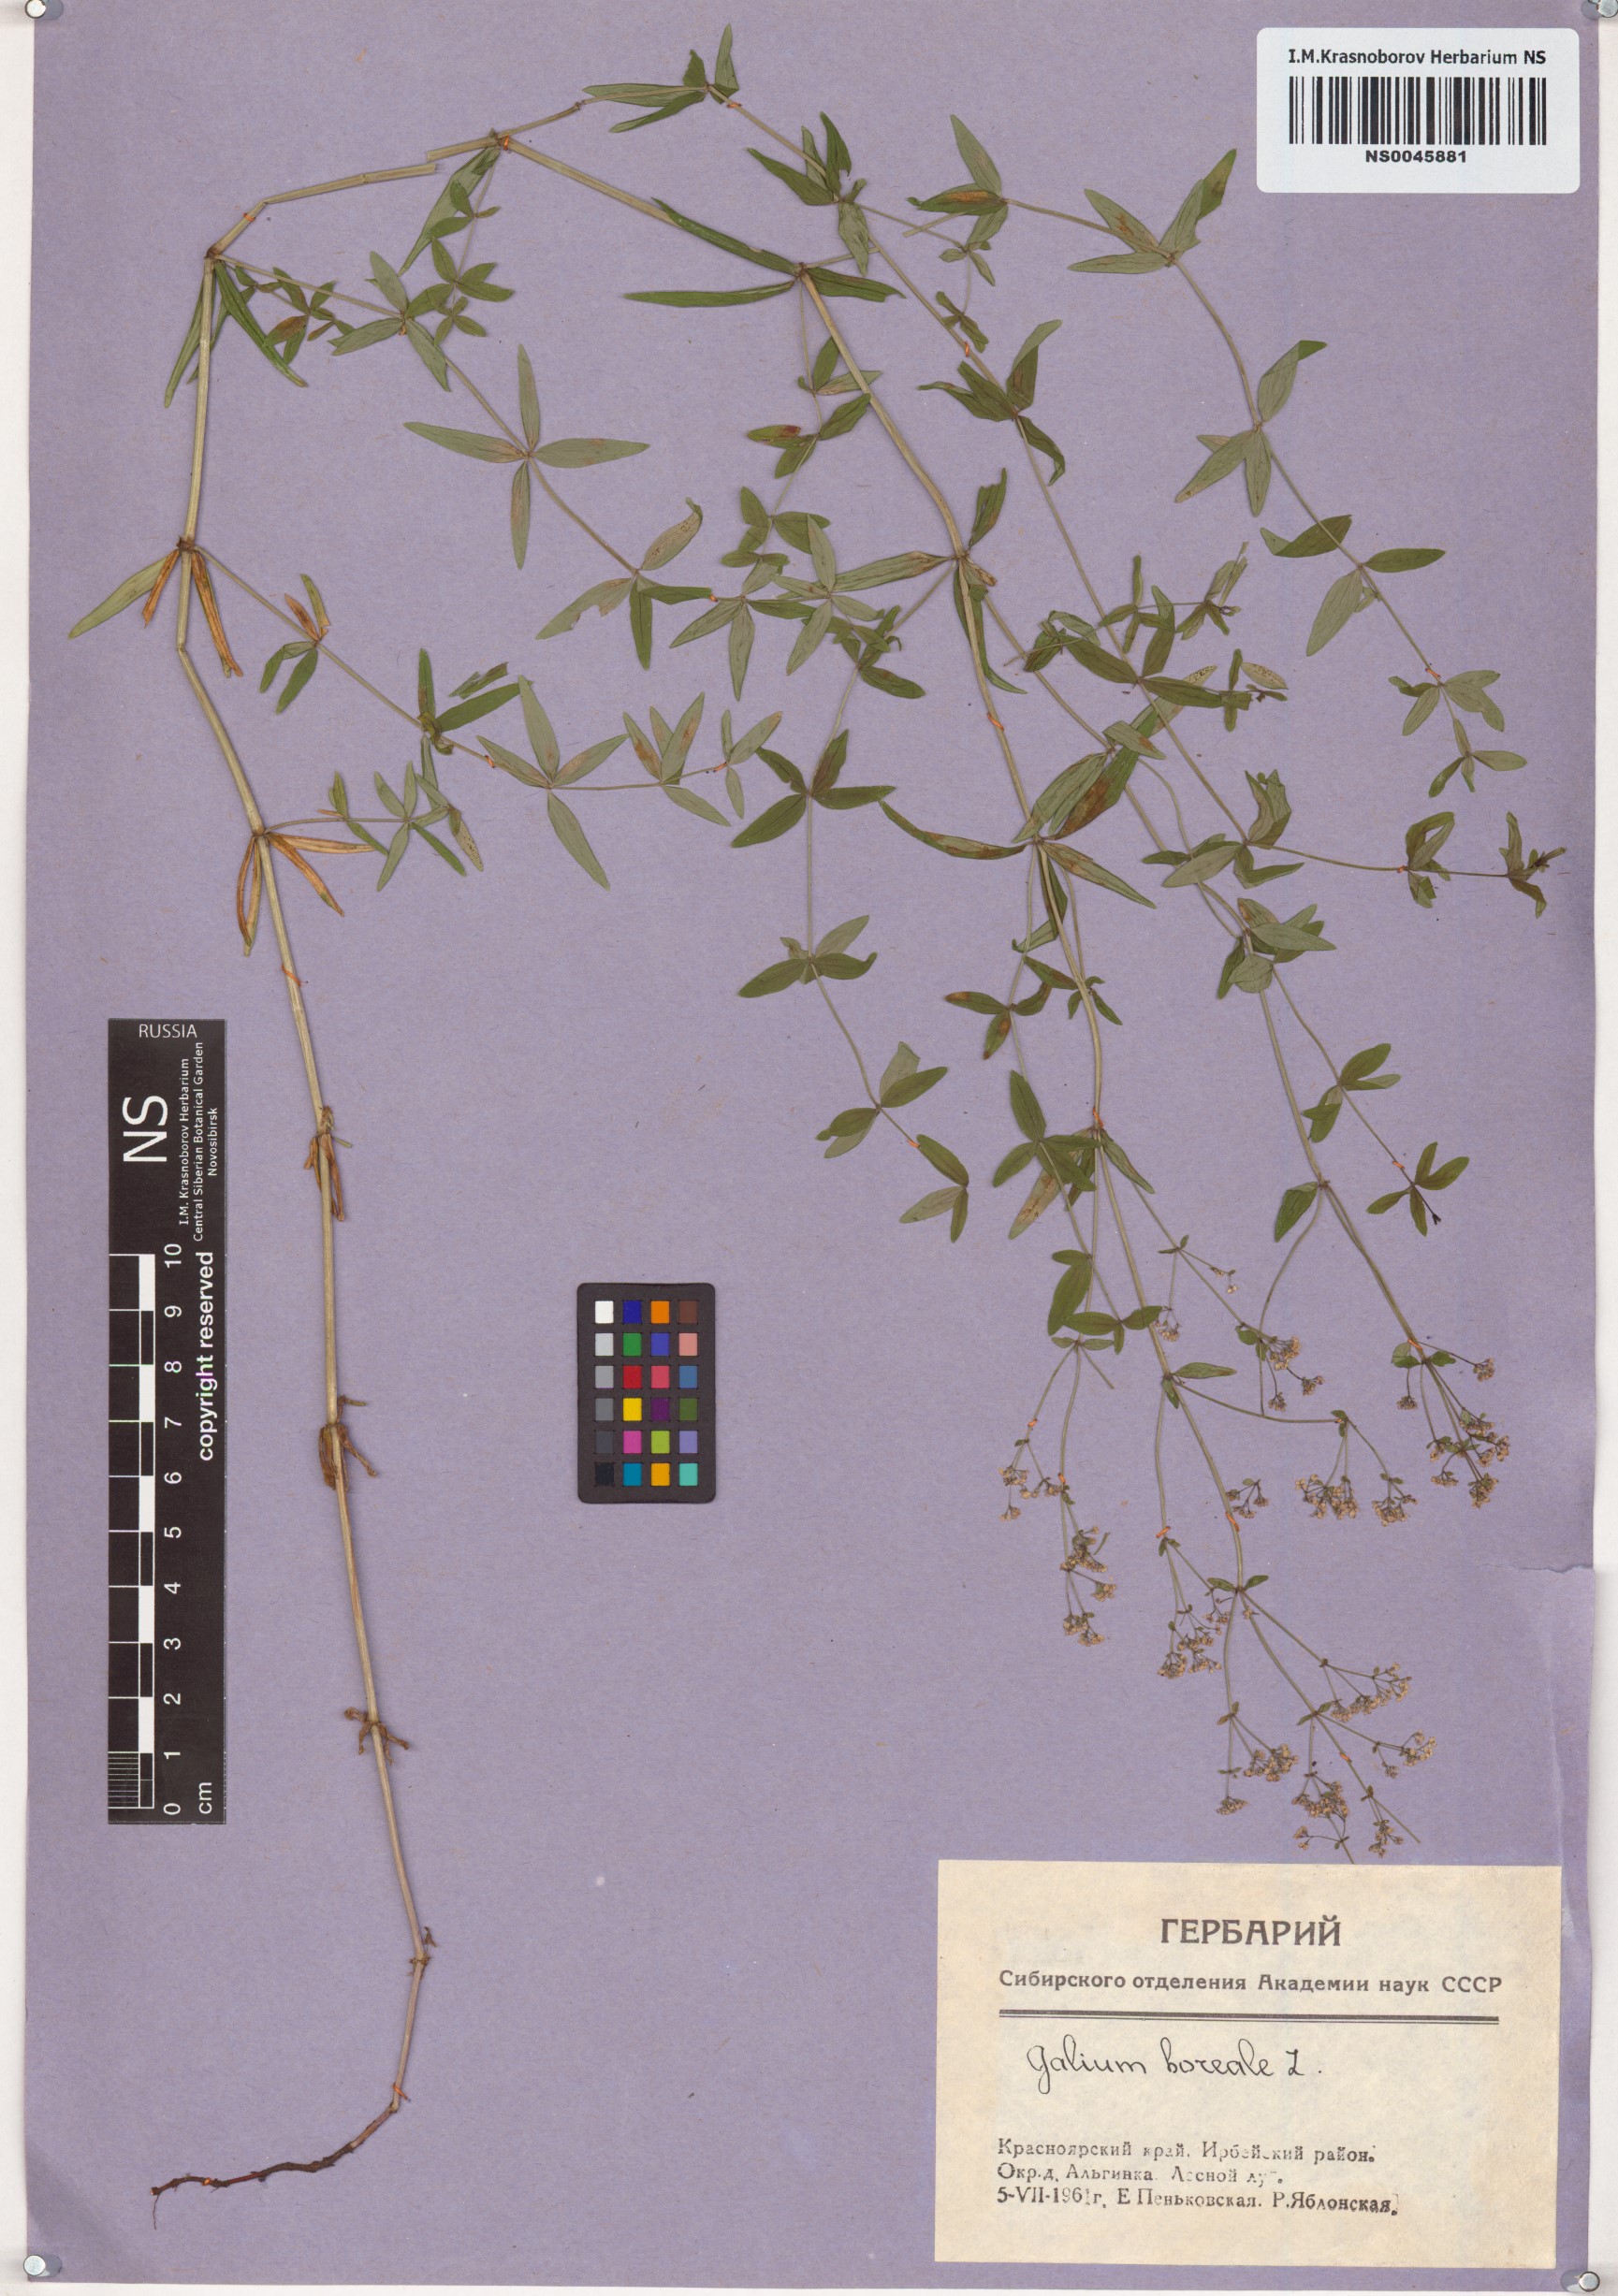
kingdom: Plantae
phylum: Tracheophyta
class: Magnoliopsida
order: Gentianales
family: Rubiaceae
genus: Galium
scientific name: Galium boreale
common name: Northern bedstraw
